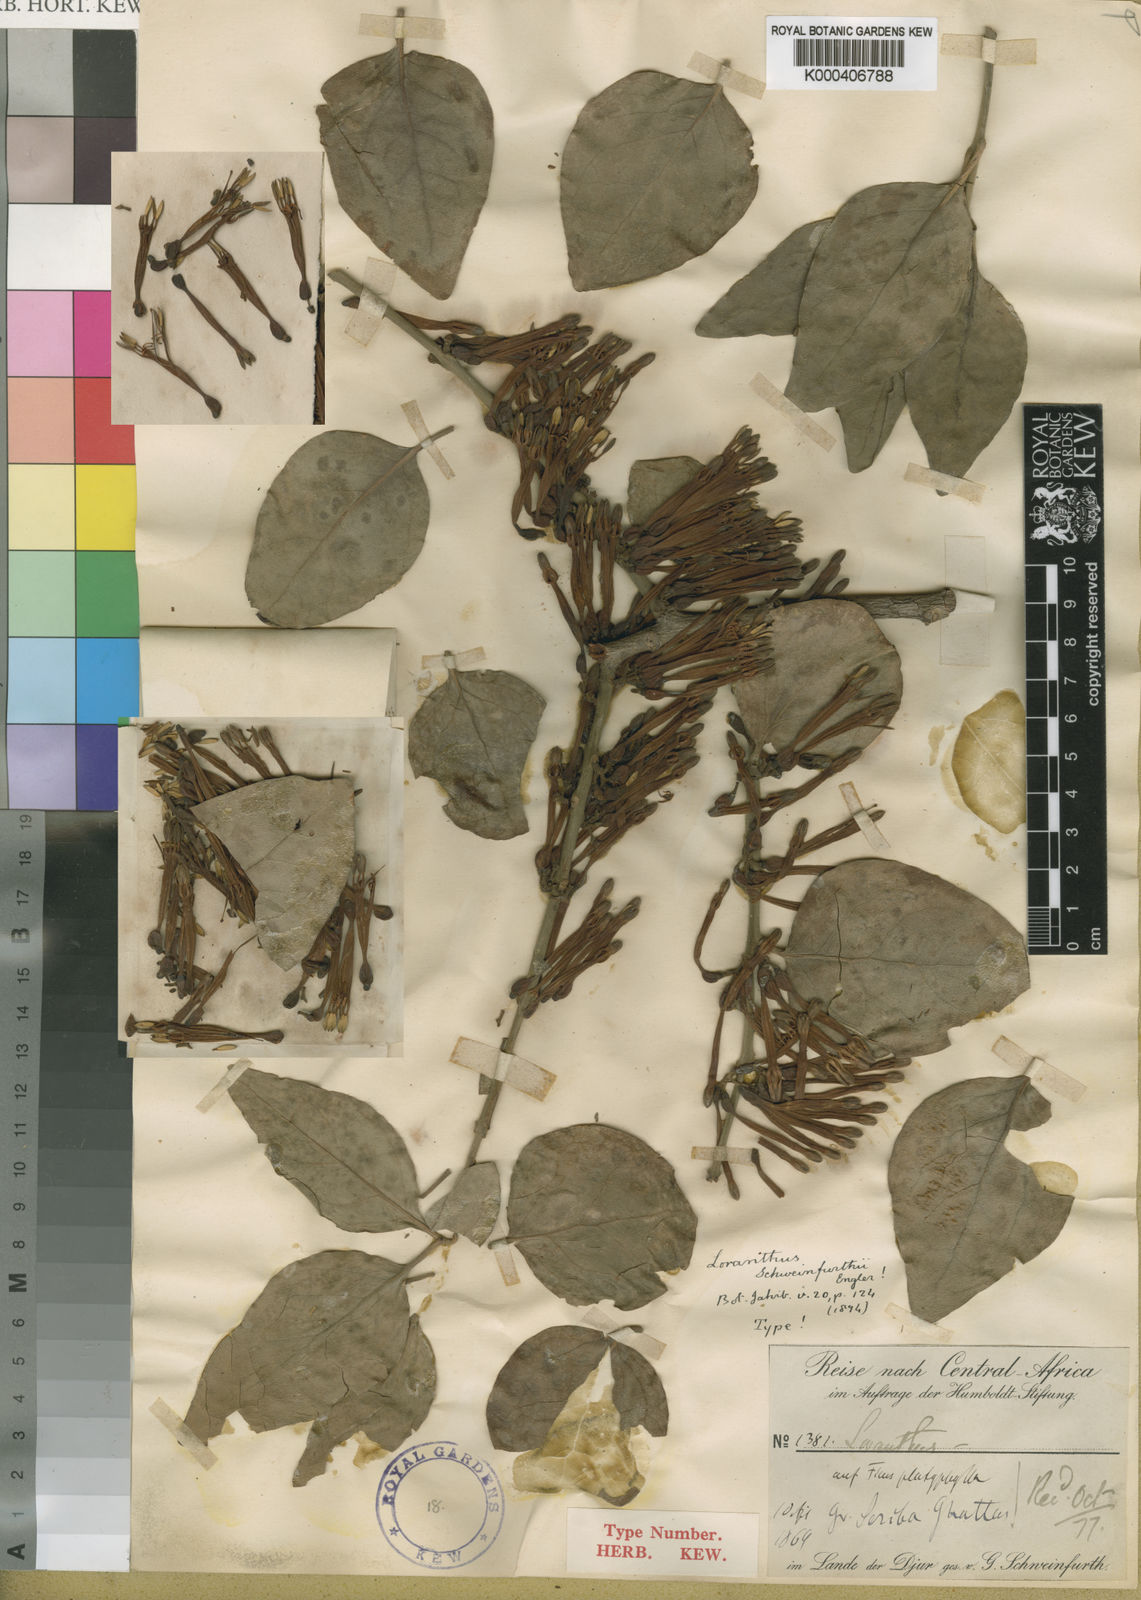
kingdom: Plantae
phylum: Tracheophyta
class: Magnoliopsida
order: Santalales
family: Loranthaceae
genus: Agelanthus
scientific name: Agelanthus schweinfurthii
